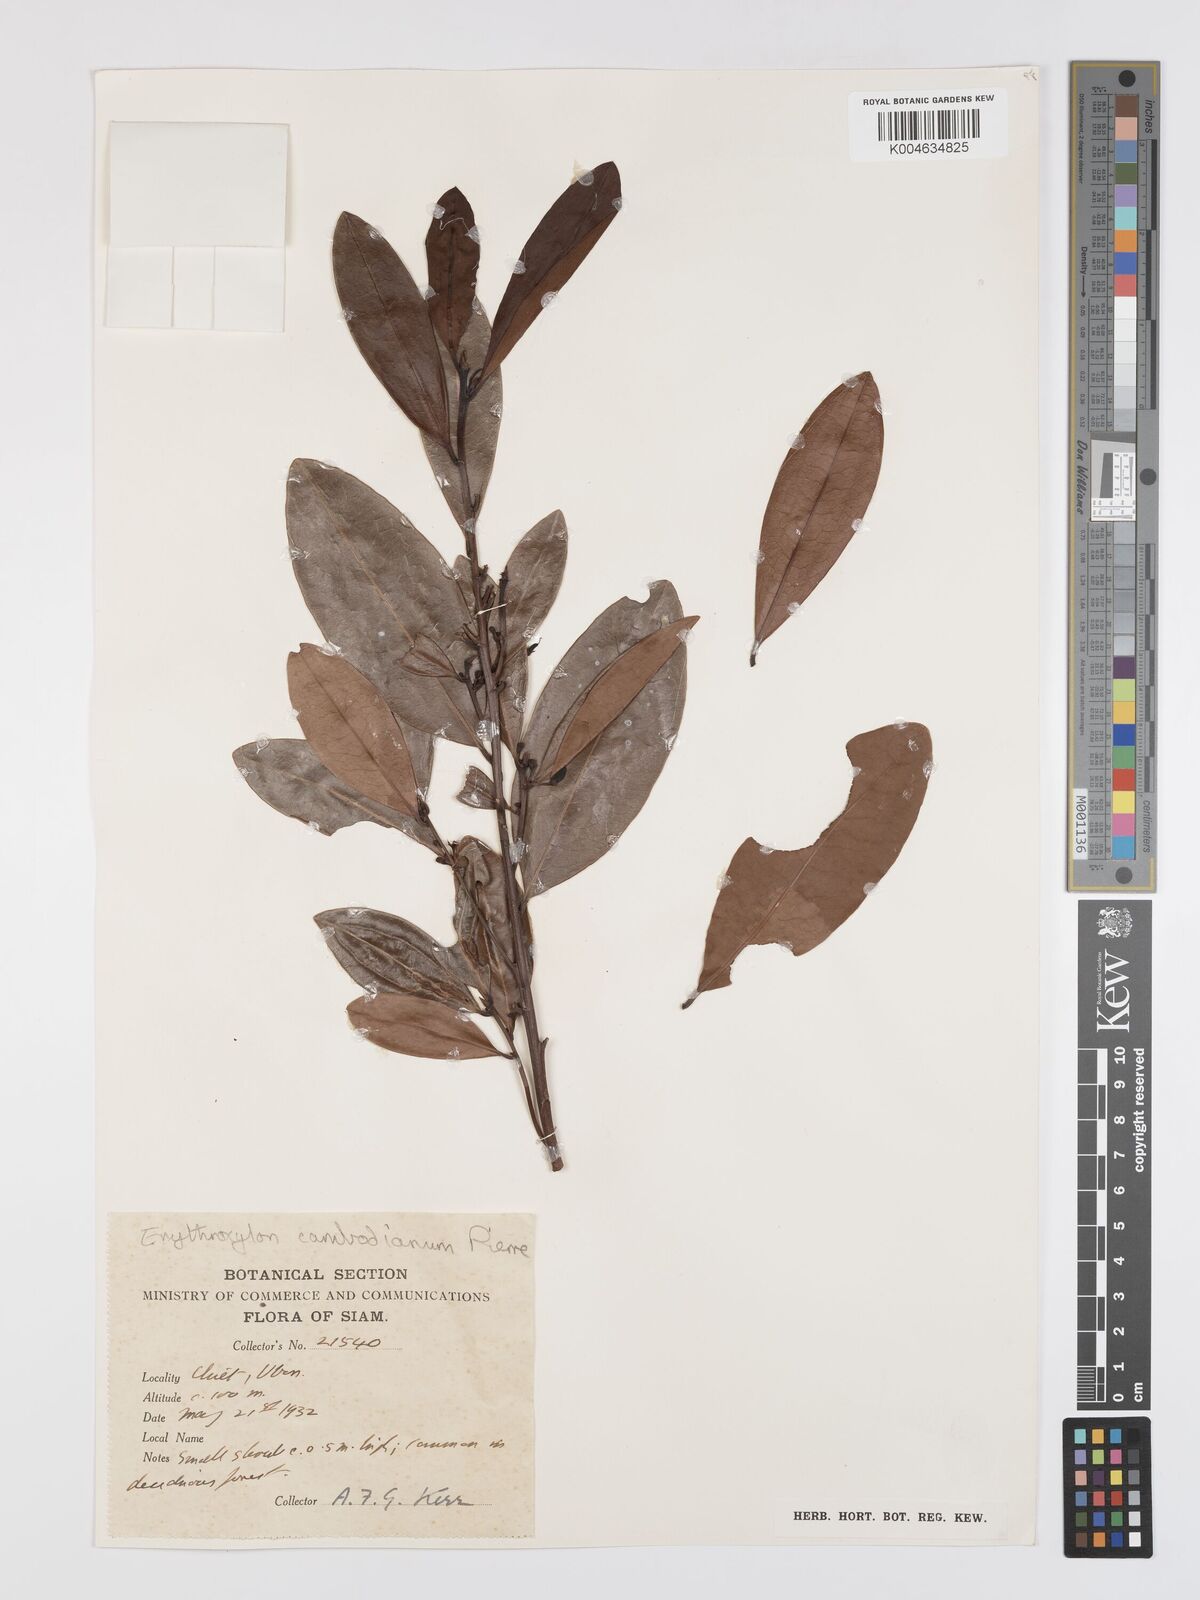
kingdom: Plantae
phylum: Tracheophyta
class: Magnoliopsida
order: Malpighiales
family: Erythroxylaceae
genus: Erythroxylum
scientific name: Erythroxylum cambodianum
